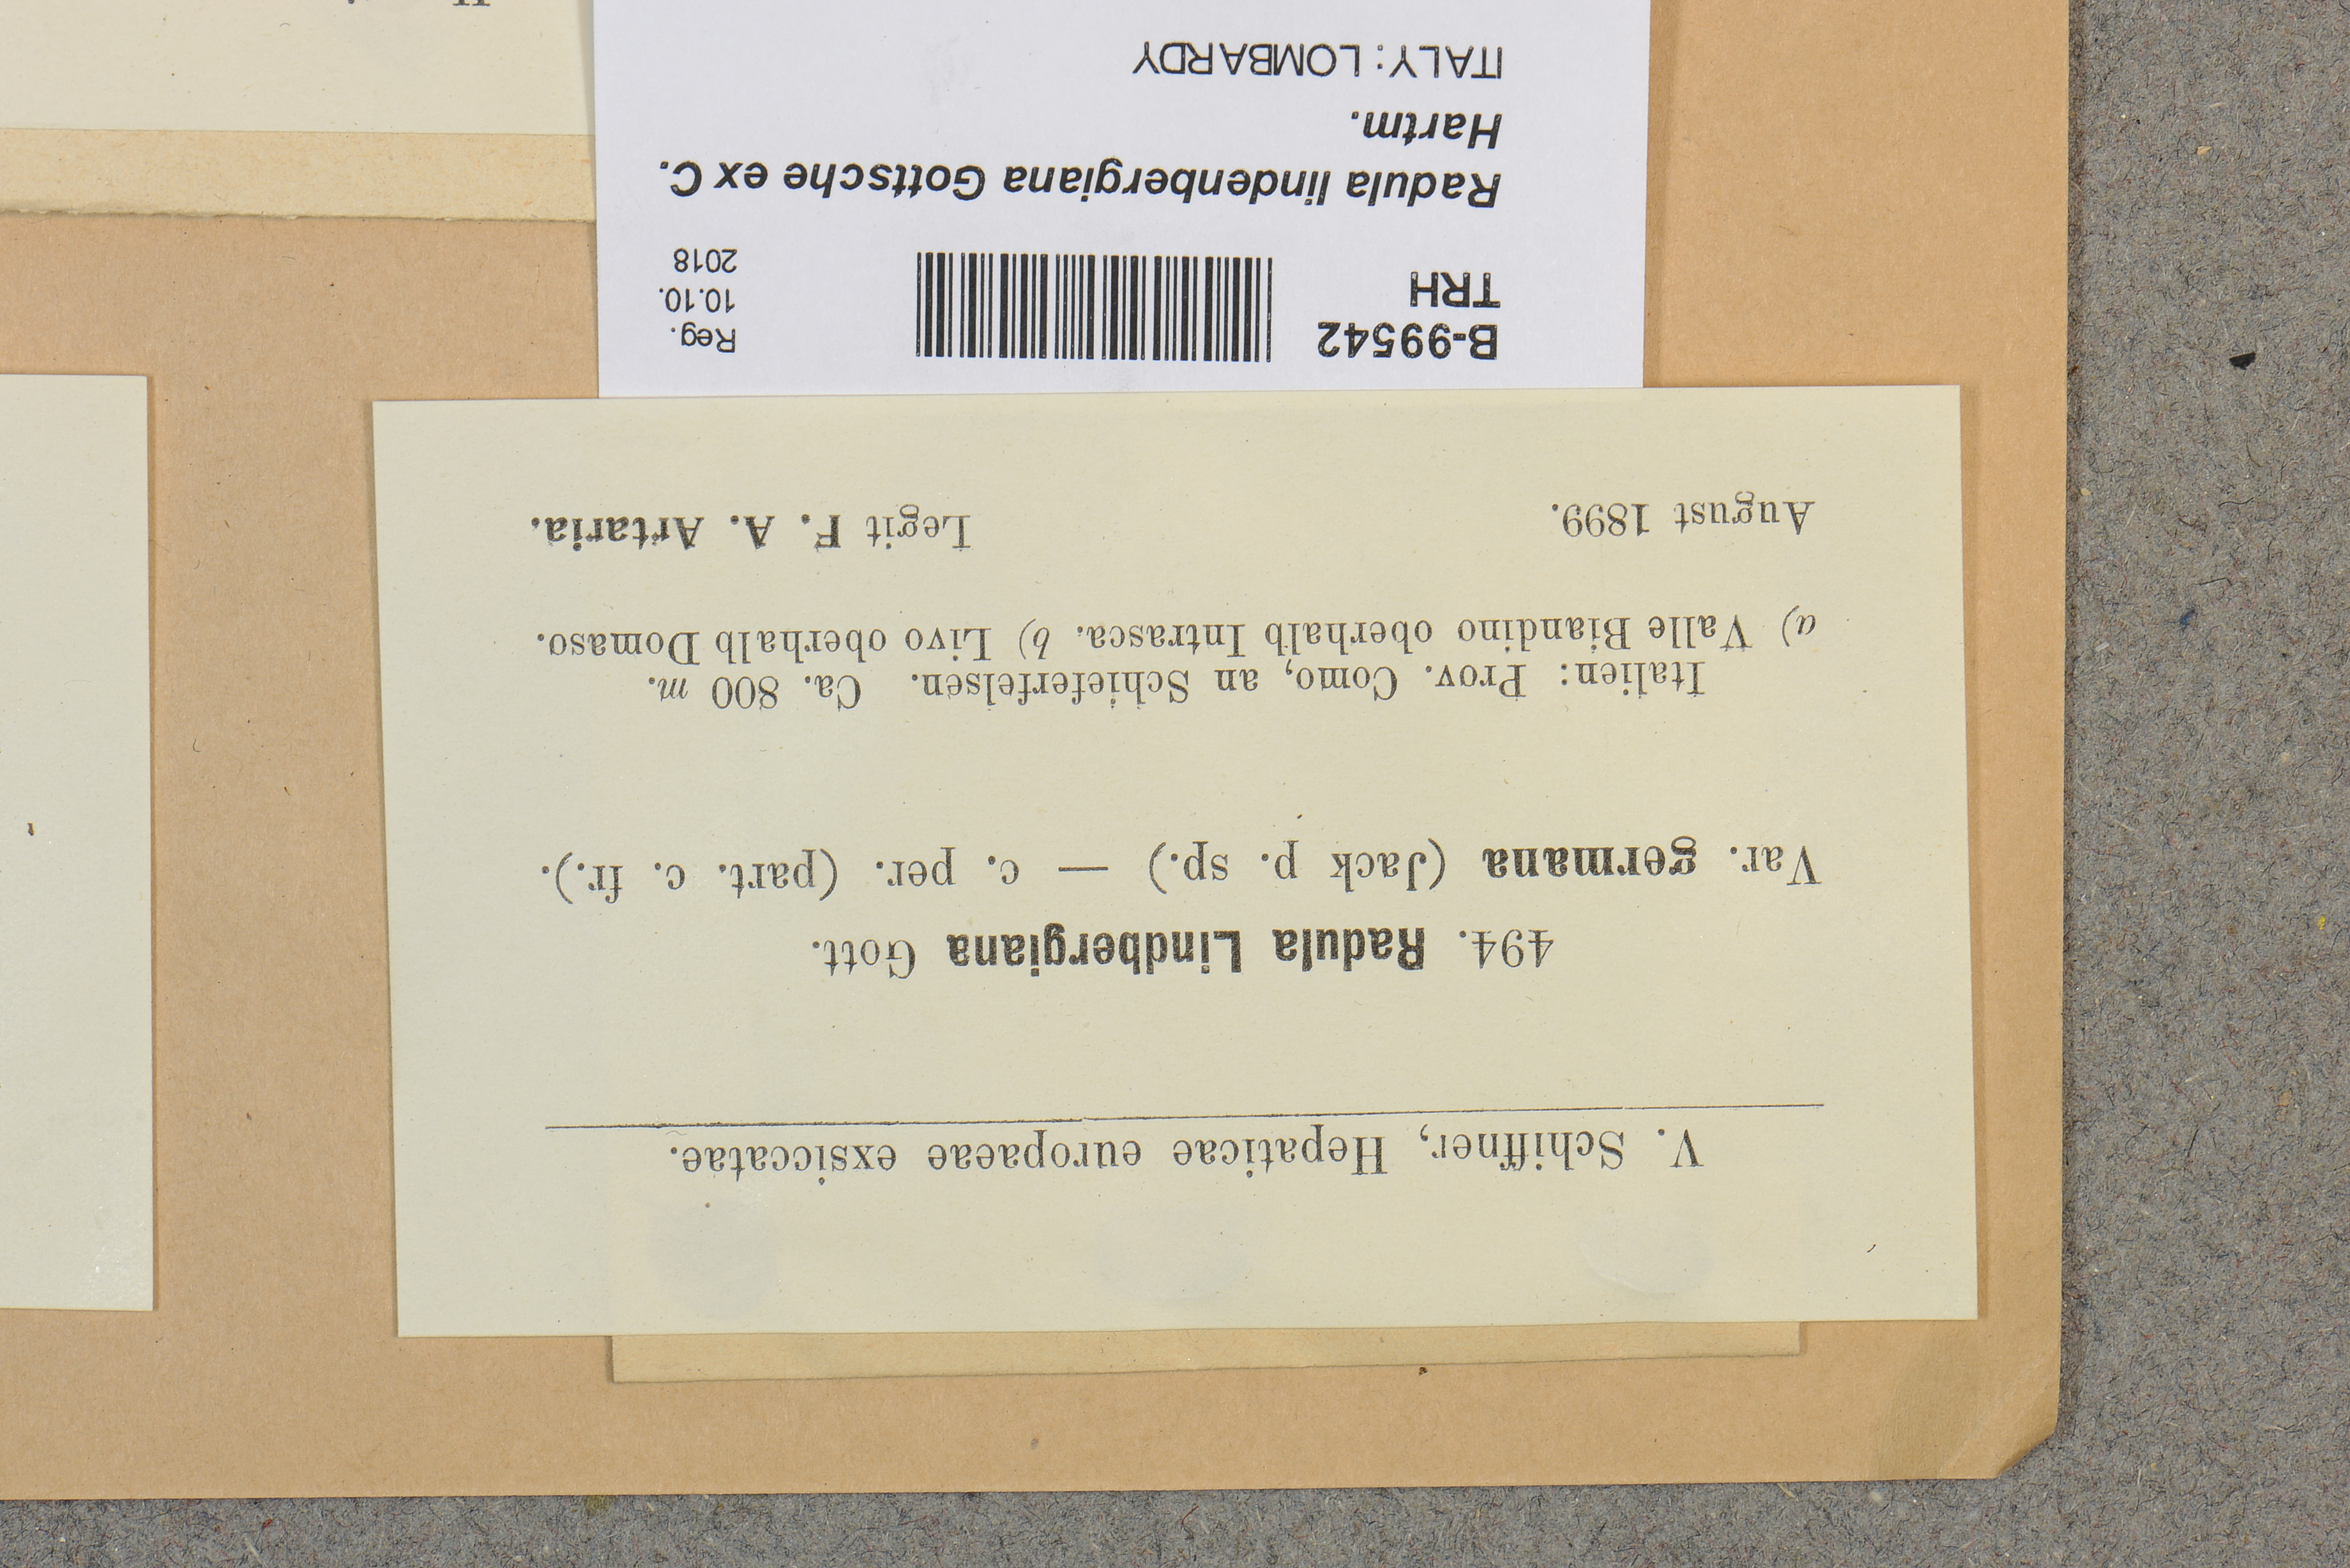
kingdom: Plantae
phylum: Marchantiophyta
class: Jungermanniopsida
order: Porellales
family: Radulaceae
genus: Radula
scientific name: Radula lindenbergiana
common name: Lindenberg's scalewort
